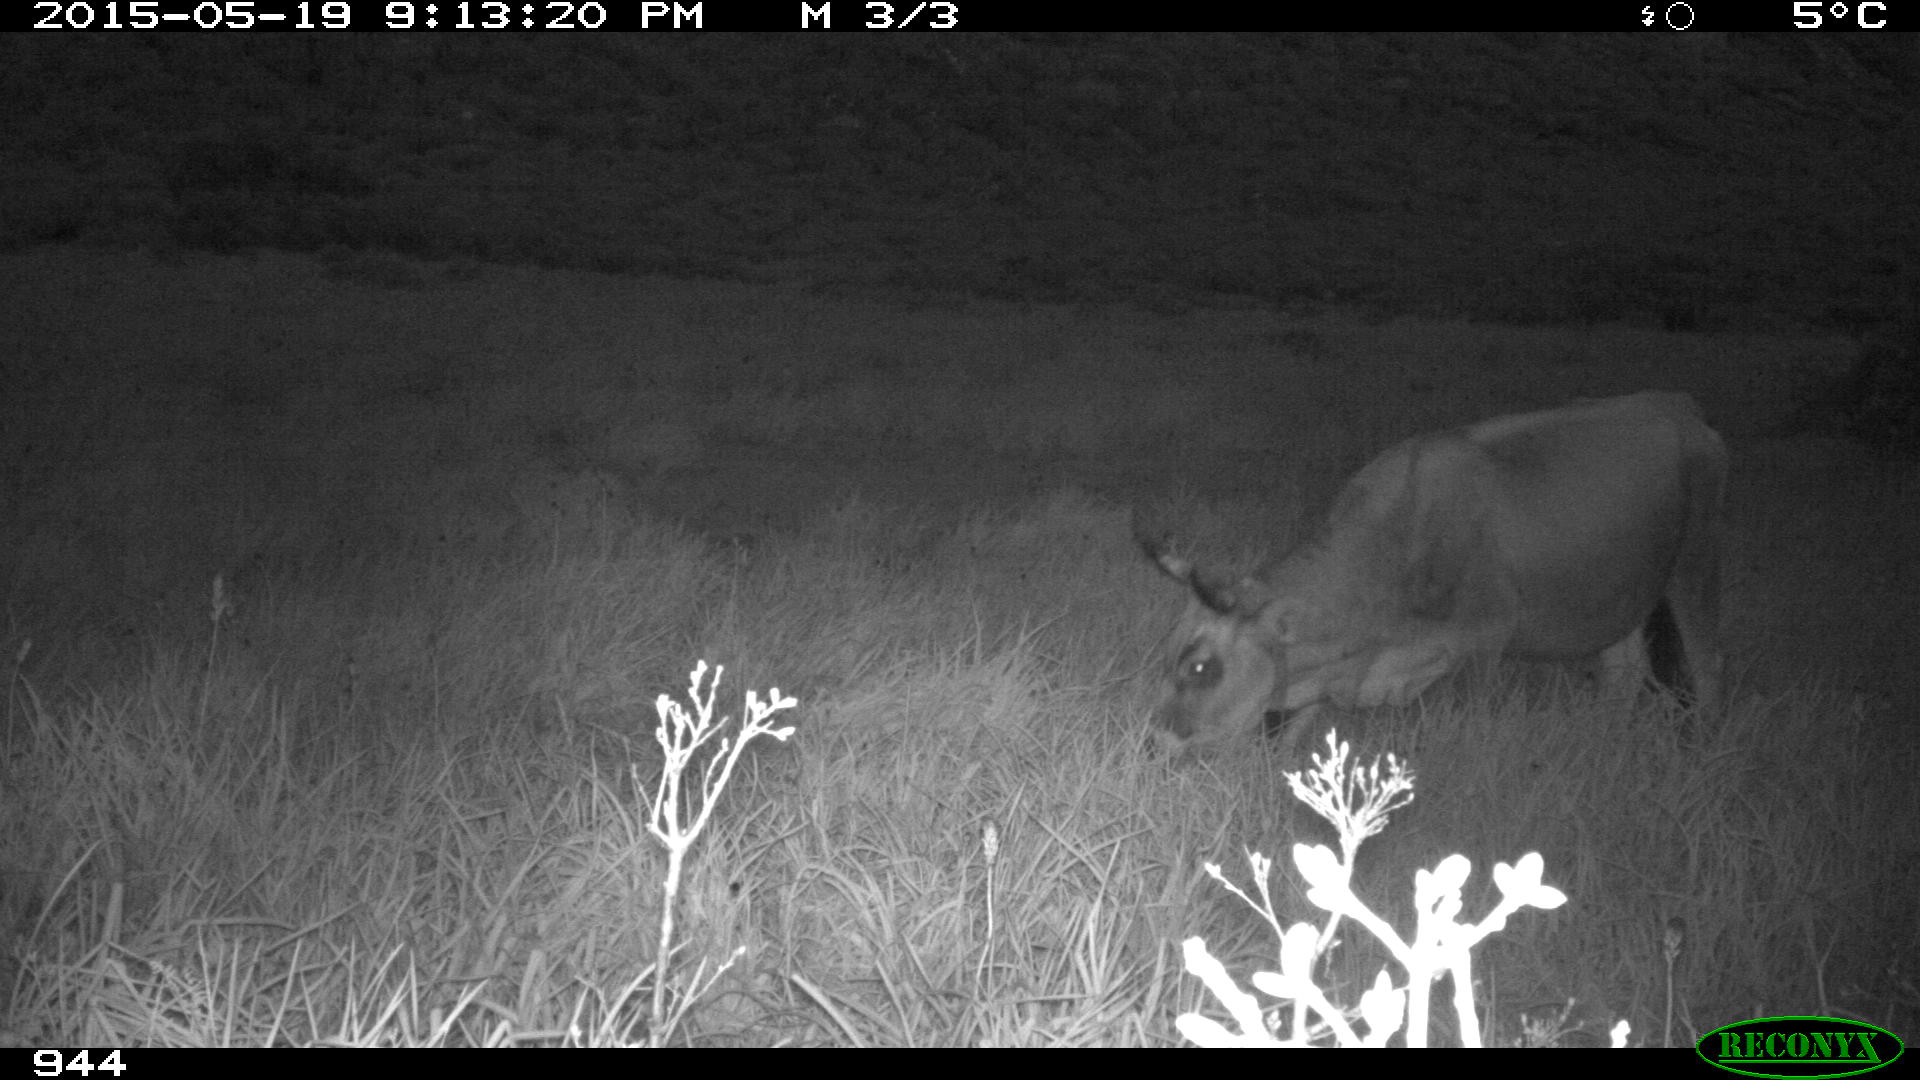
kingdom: Animalia
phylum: Chordata
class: Mammalia
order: Artiodactyla
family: Bovidae
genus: Bos
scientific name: Bos taurus
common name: Domesticated cattle
